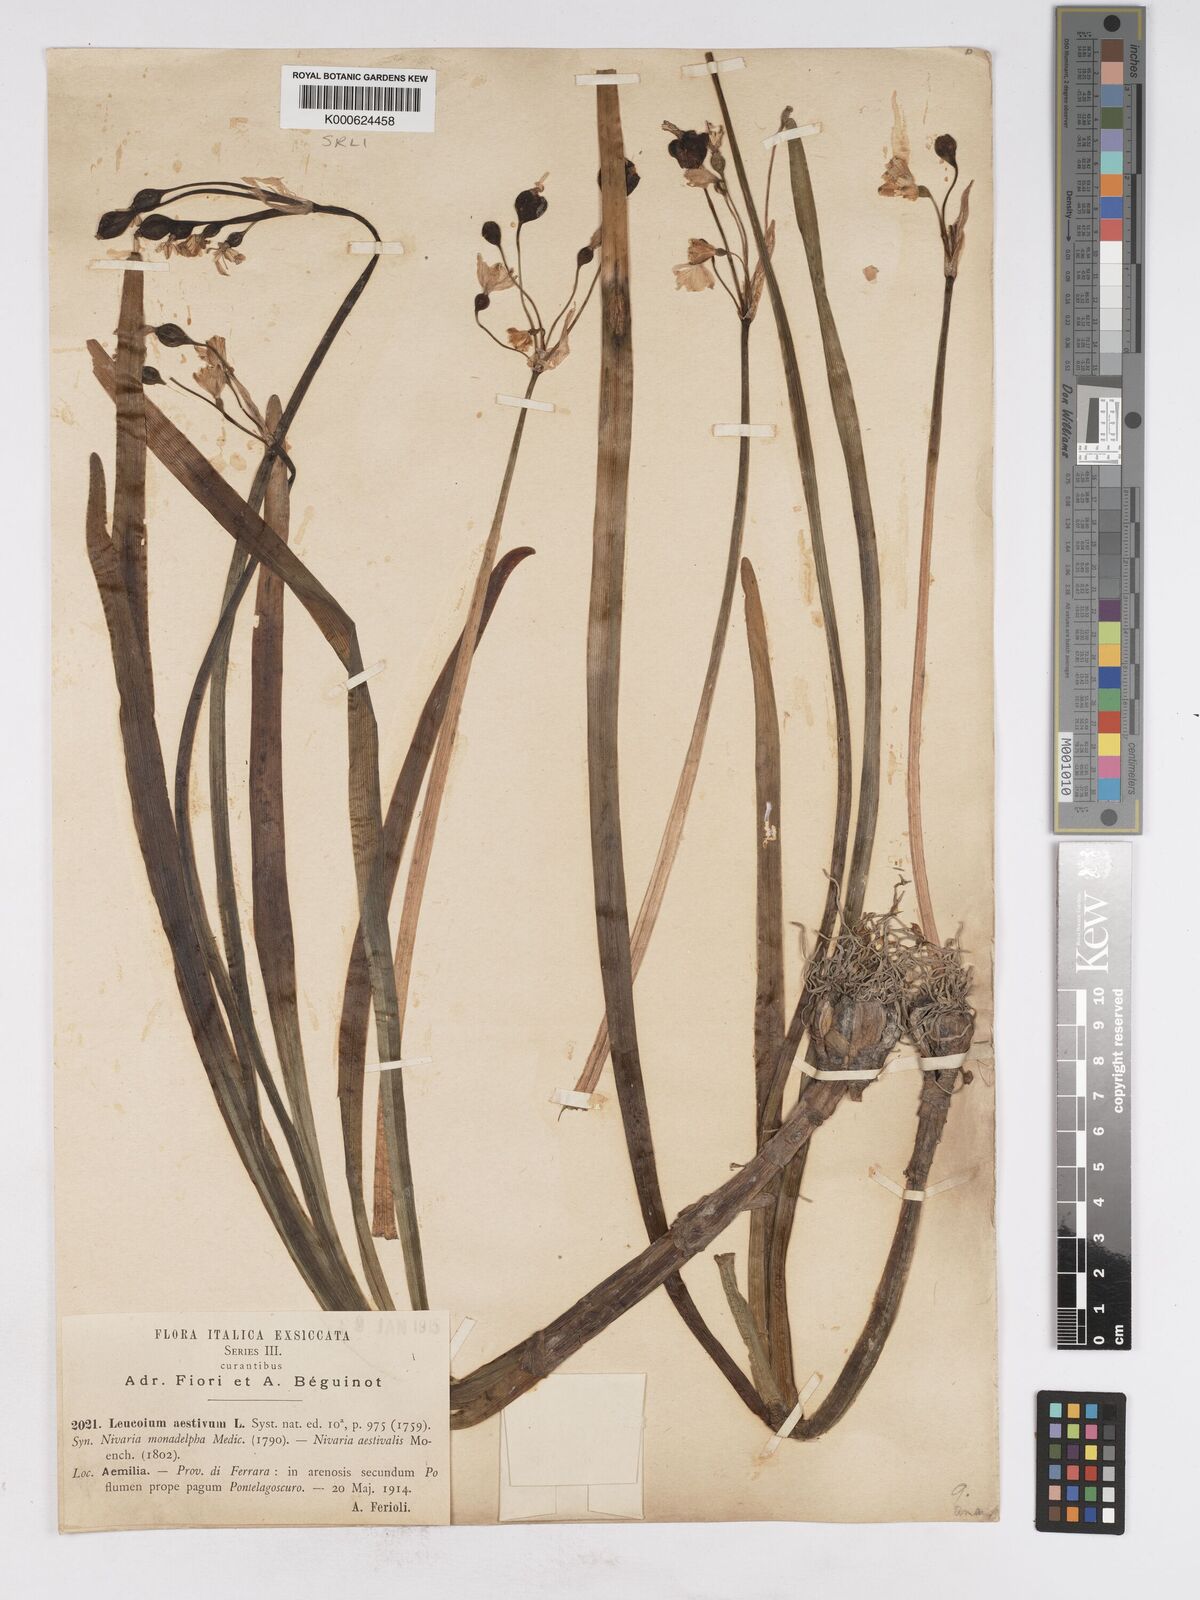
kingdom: Plantae
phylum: Tracheophyta
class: Liliopsida
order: Asparagales
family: Amaryllidaceae
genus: Leucojum
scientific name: Leucojum aestivum
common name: Summer snowflake
